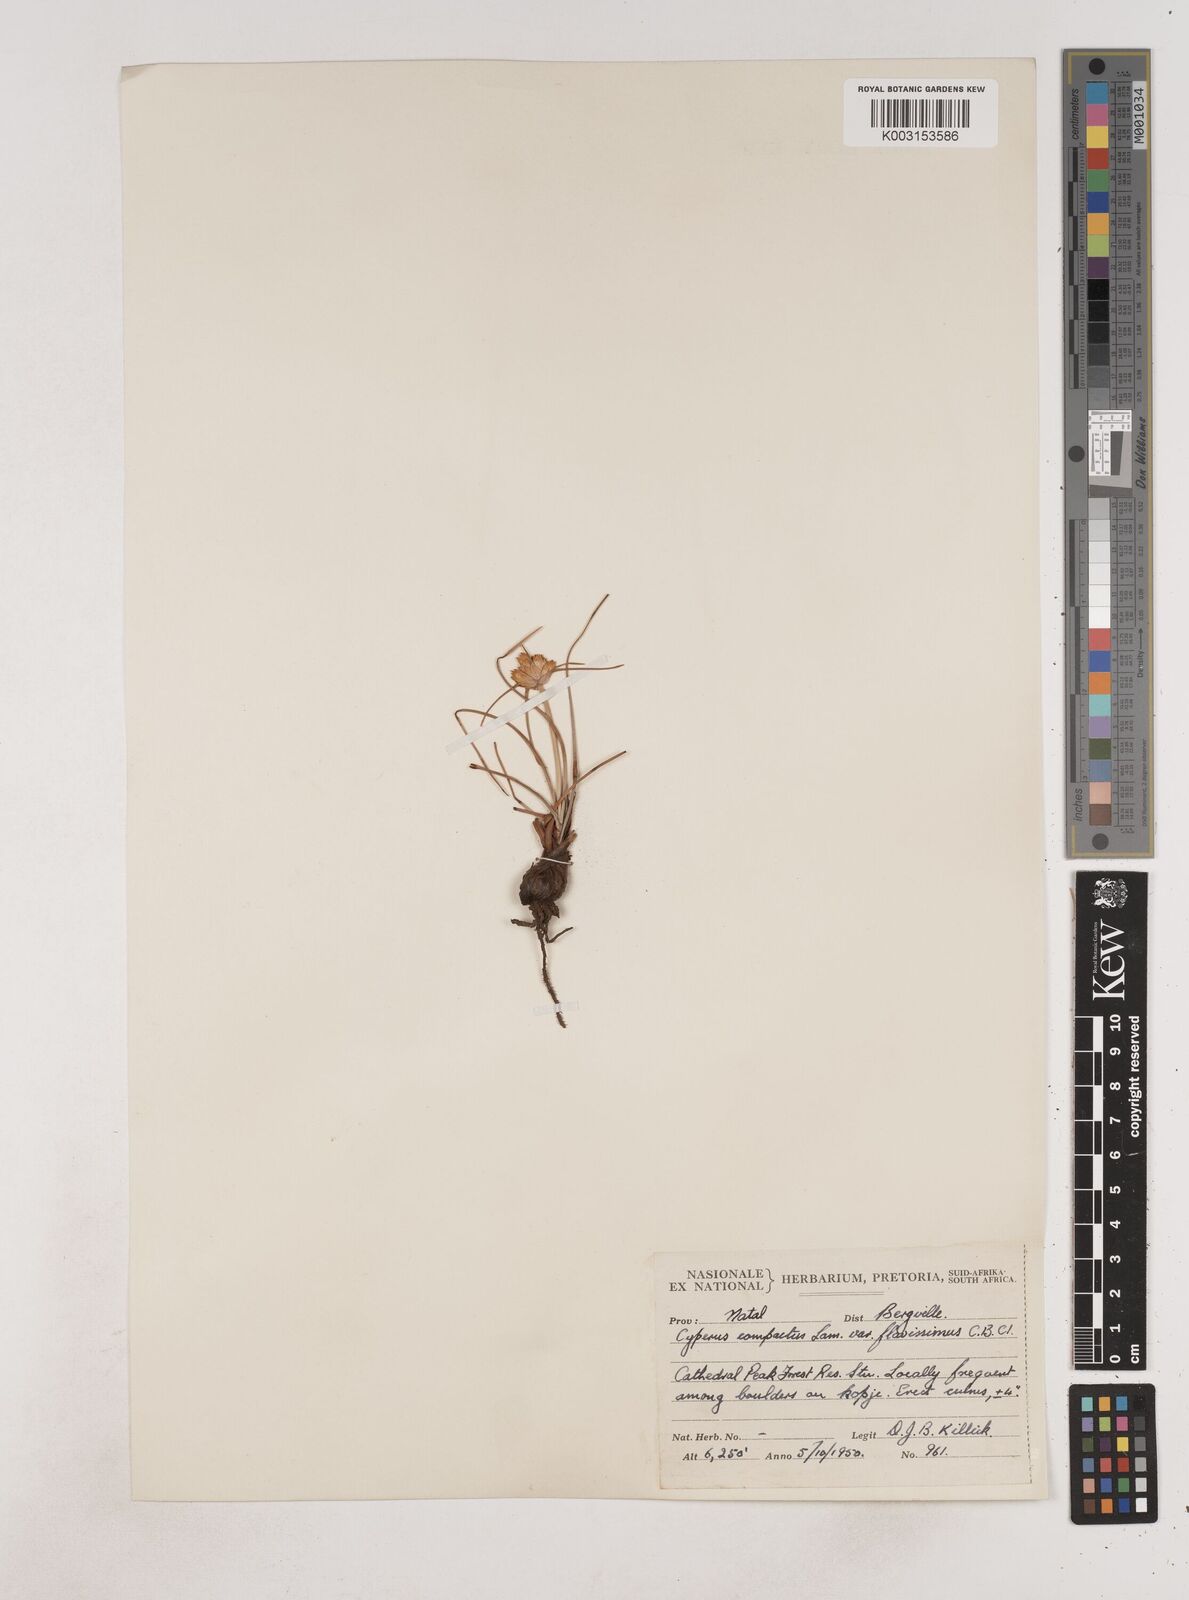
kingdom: Plantae
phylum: Tracheophyta
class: Liliopsida
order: Poales
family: Cyperaceae
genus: Cyperus
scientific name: Cyperus niveus
